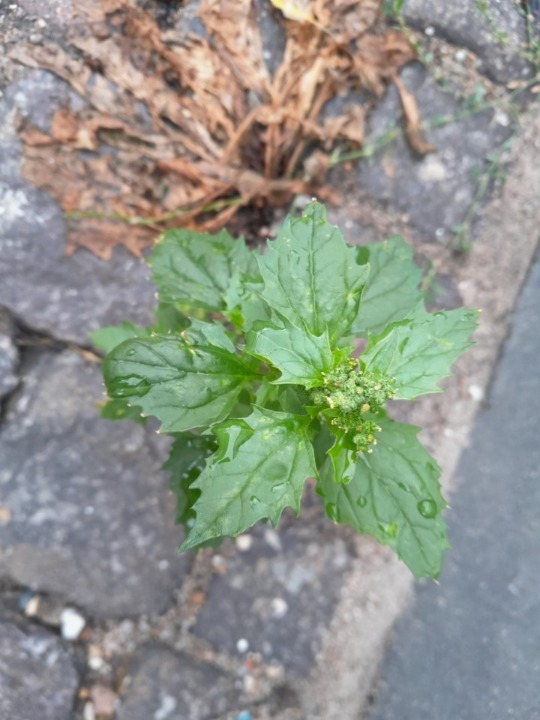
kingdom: Plantae
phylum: Tracheophyta
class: Magnoliopsida
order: Caryophyllales
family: Amaranthaceae
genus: Chenopodiastrum
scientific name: Chenopodiastrum murale
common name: Mur-gåsefod
